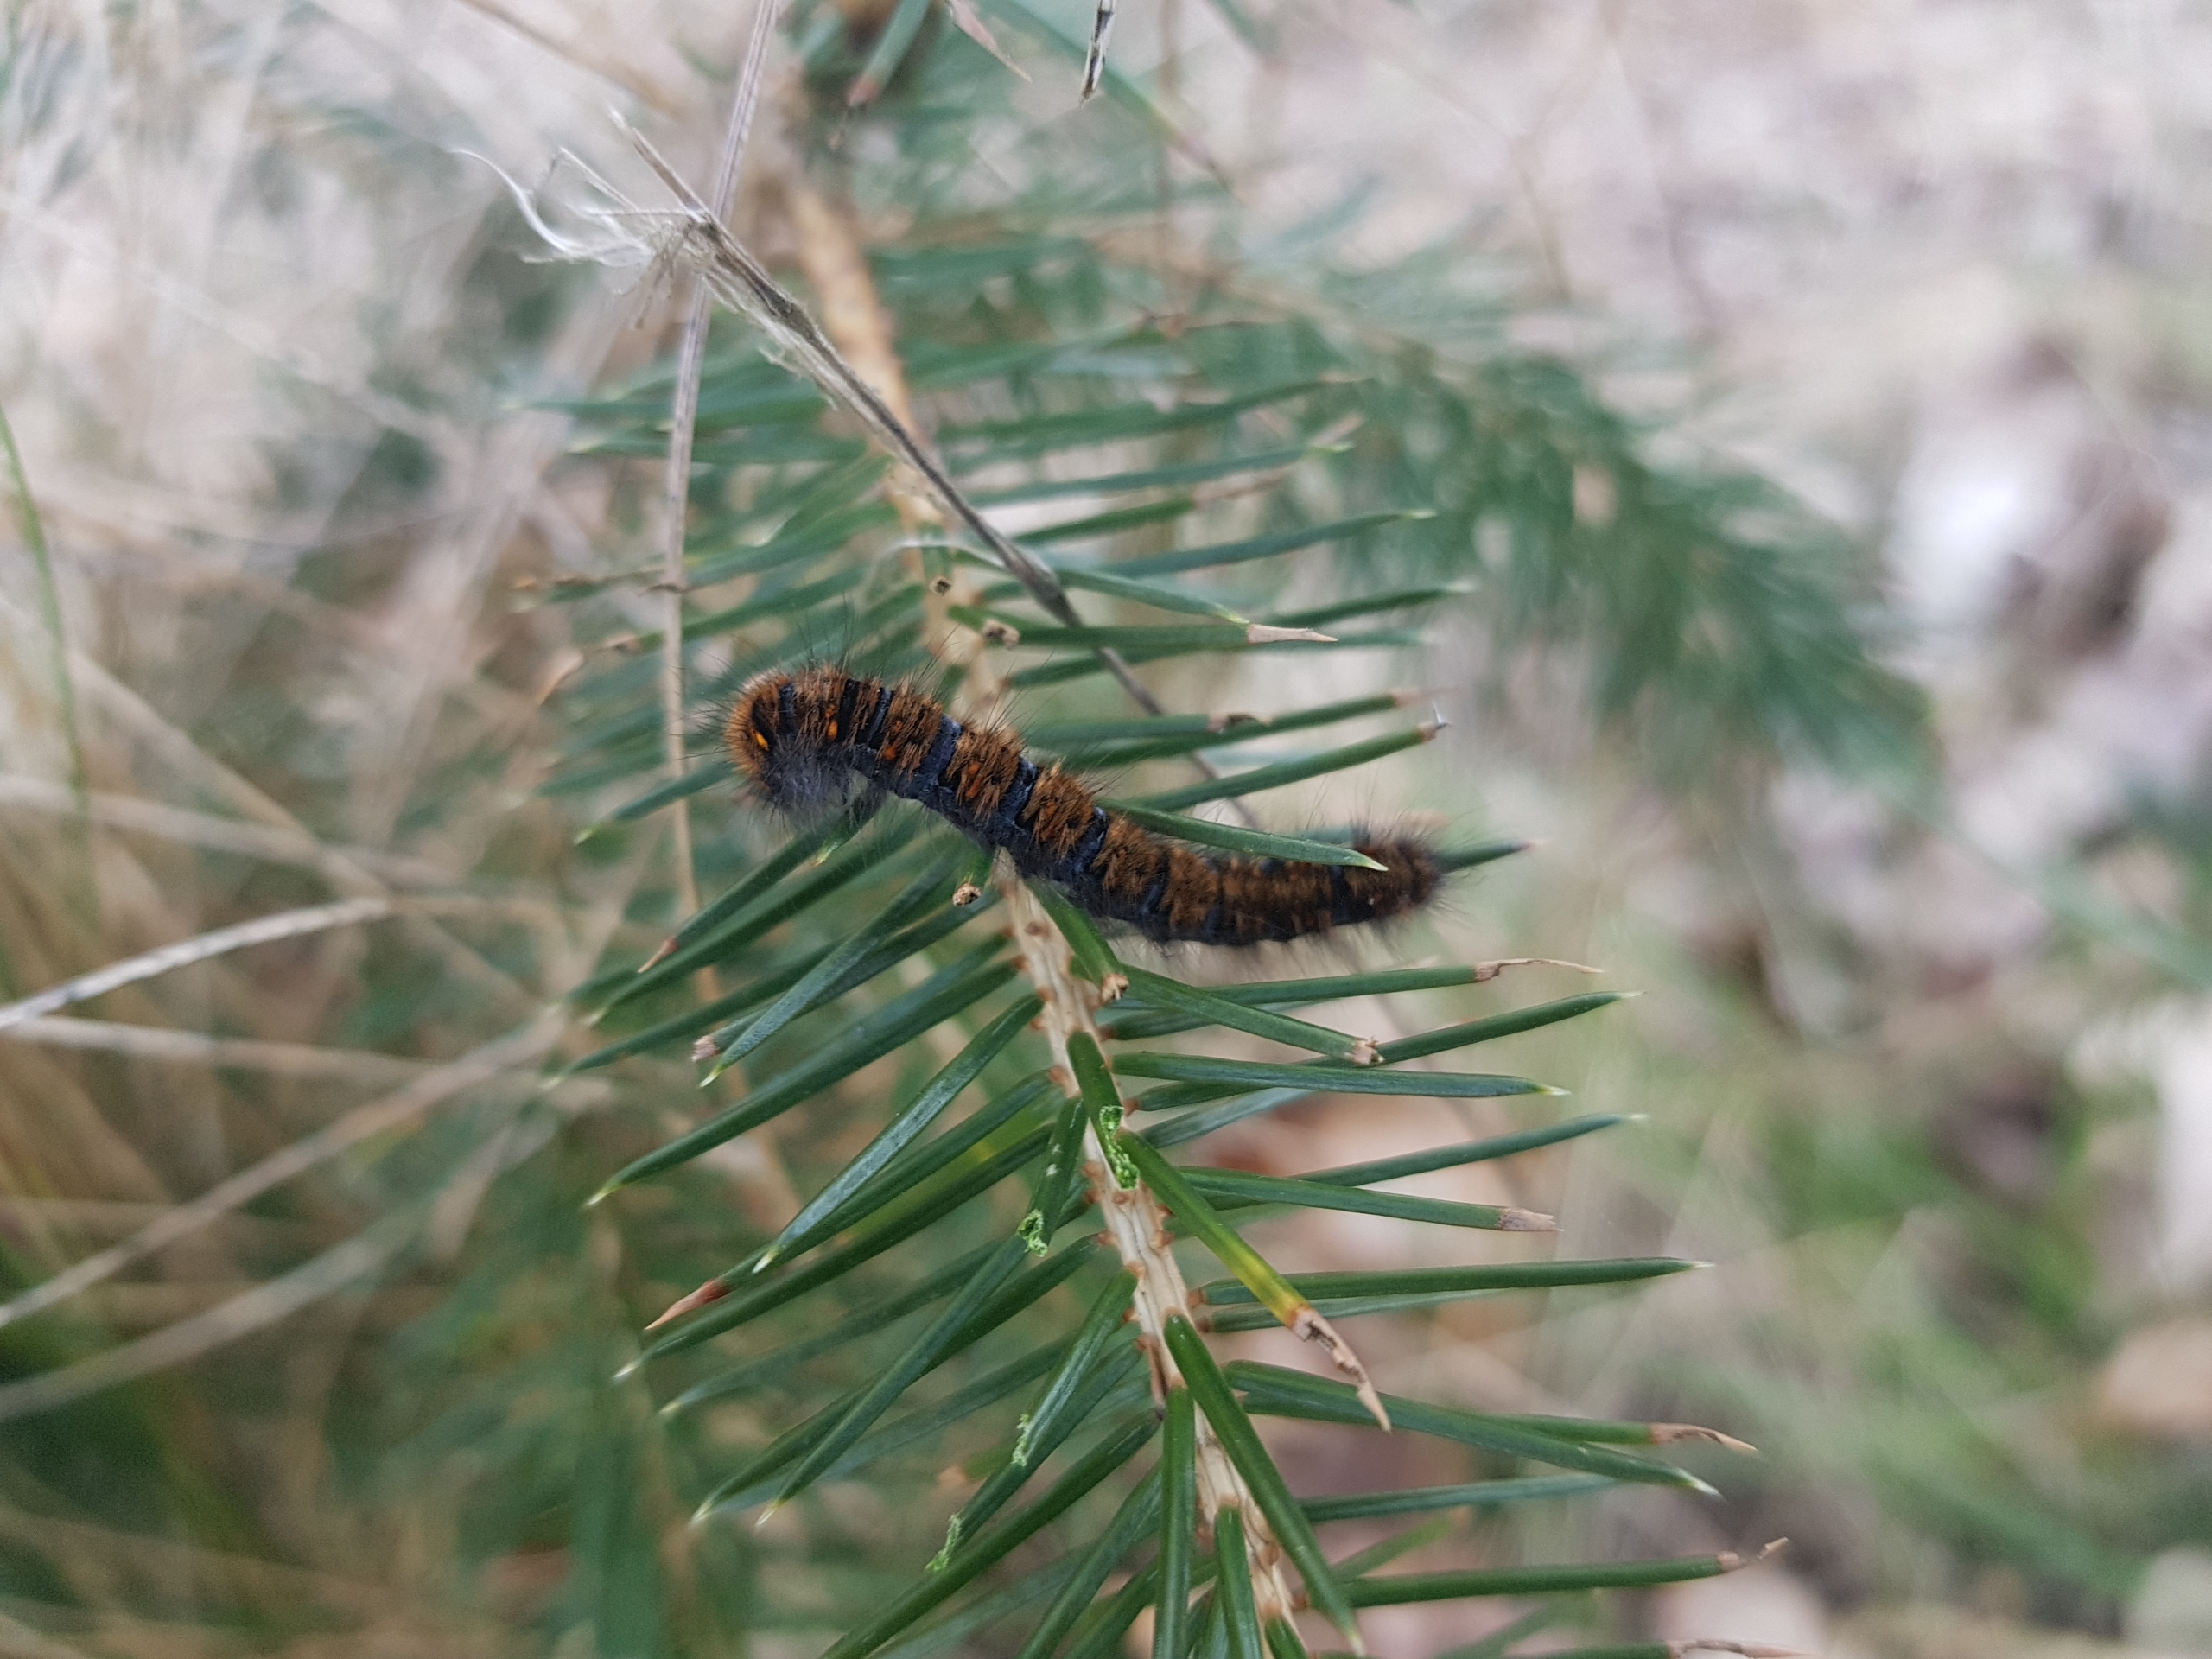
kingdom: Animalia
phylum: Arthropoda
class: Insecta
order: Lepidoptera
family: Lasiocampidae
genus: Macrothylacia
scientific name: Macrothylacia rubi
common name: Brombærspinder
